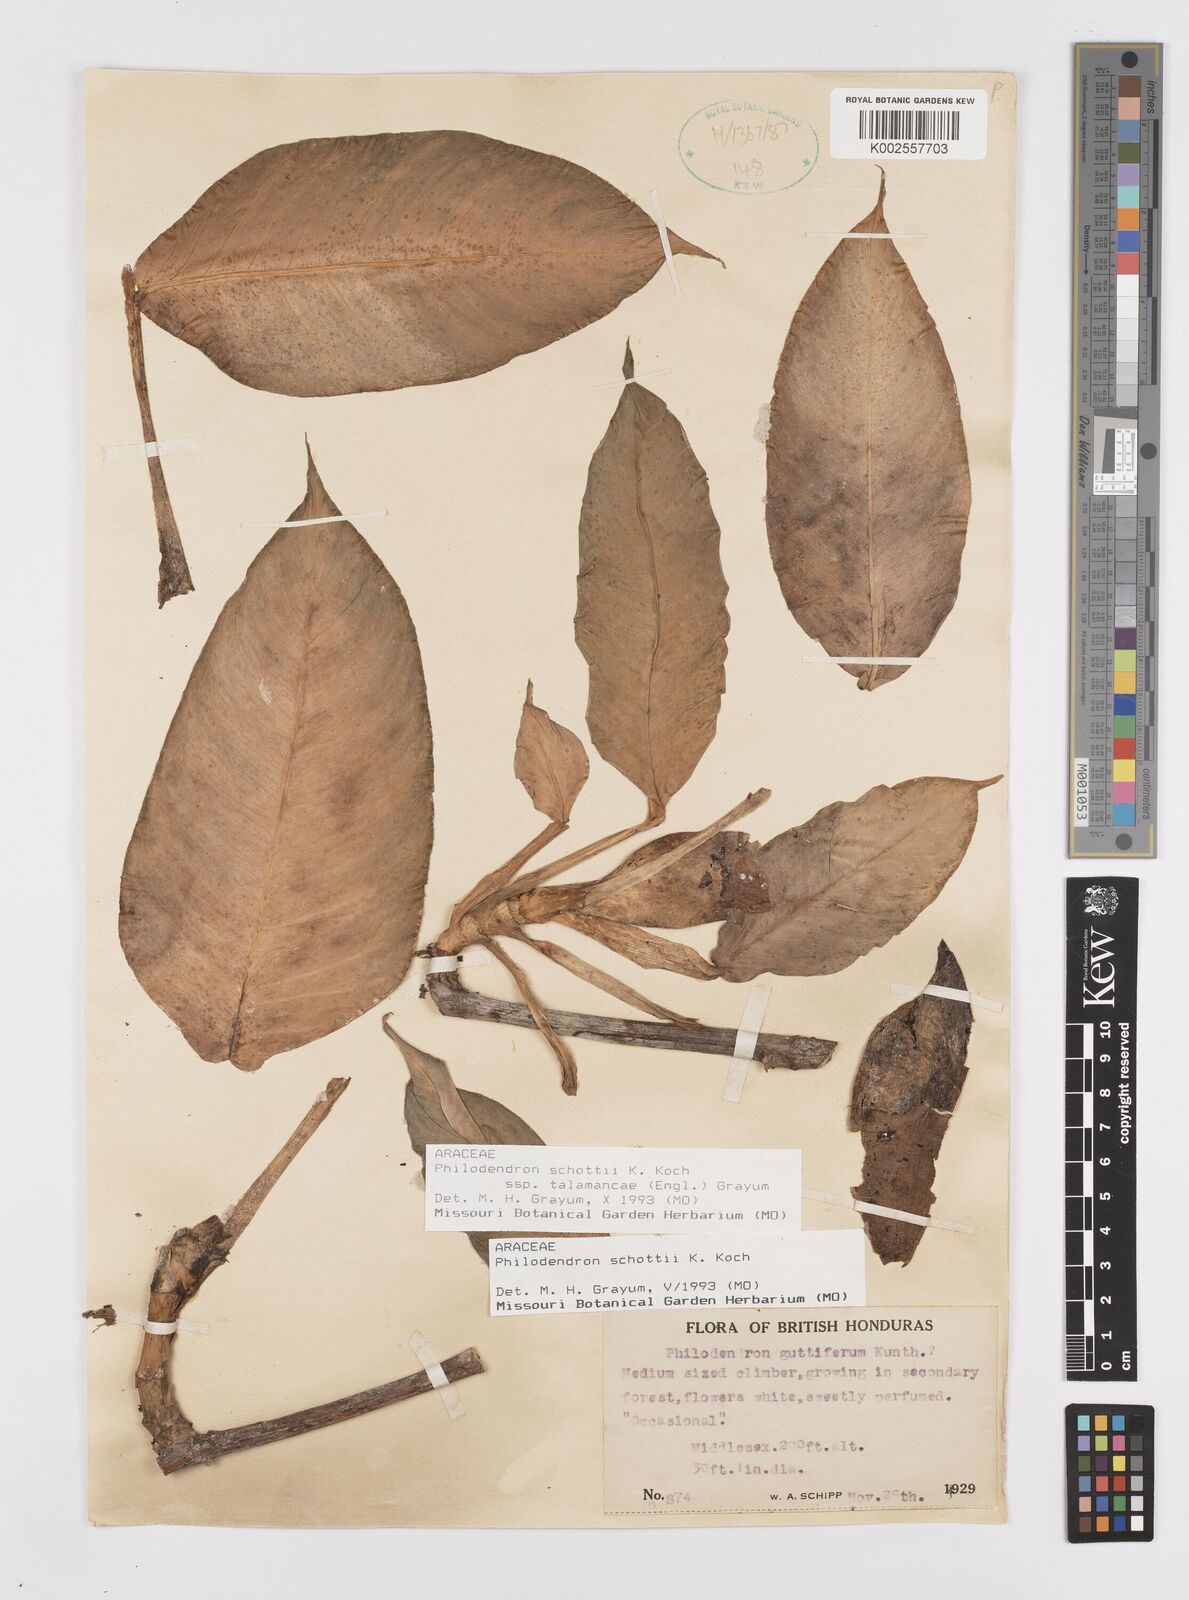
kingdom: Plantae
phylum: Tracheophyta
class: Liliopsida
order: Alismatales
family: Araceae
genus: Philodendron
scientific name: Philodendron schottii
